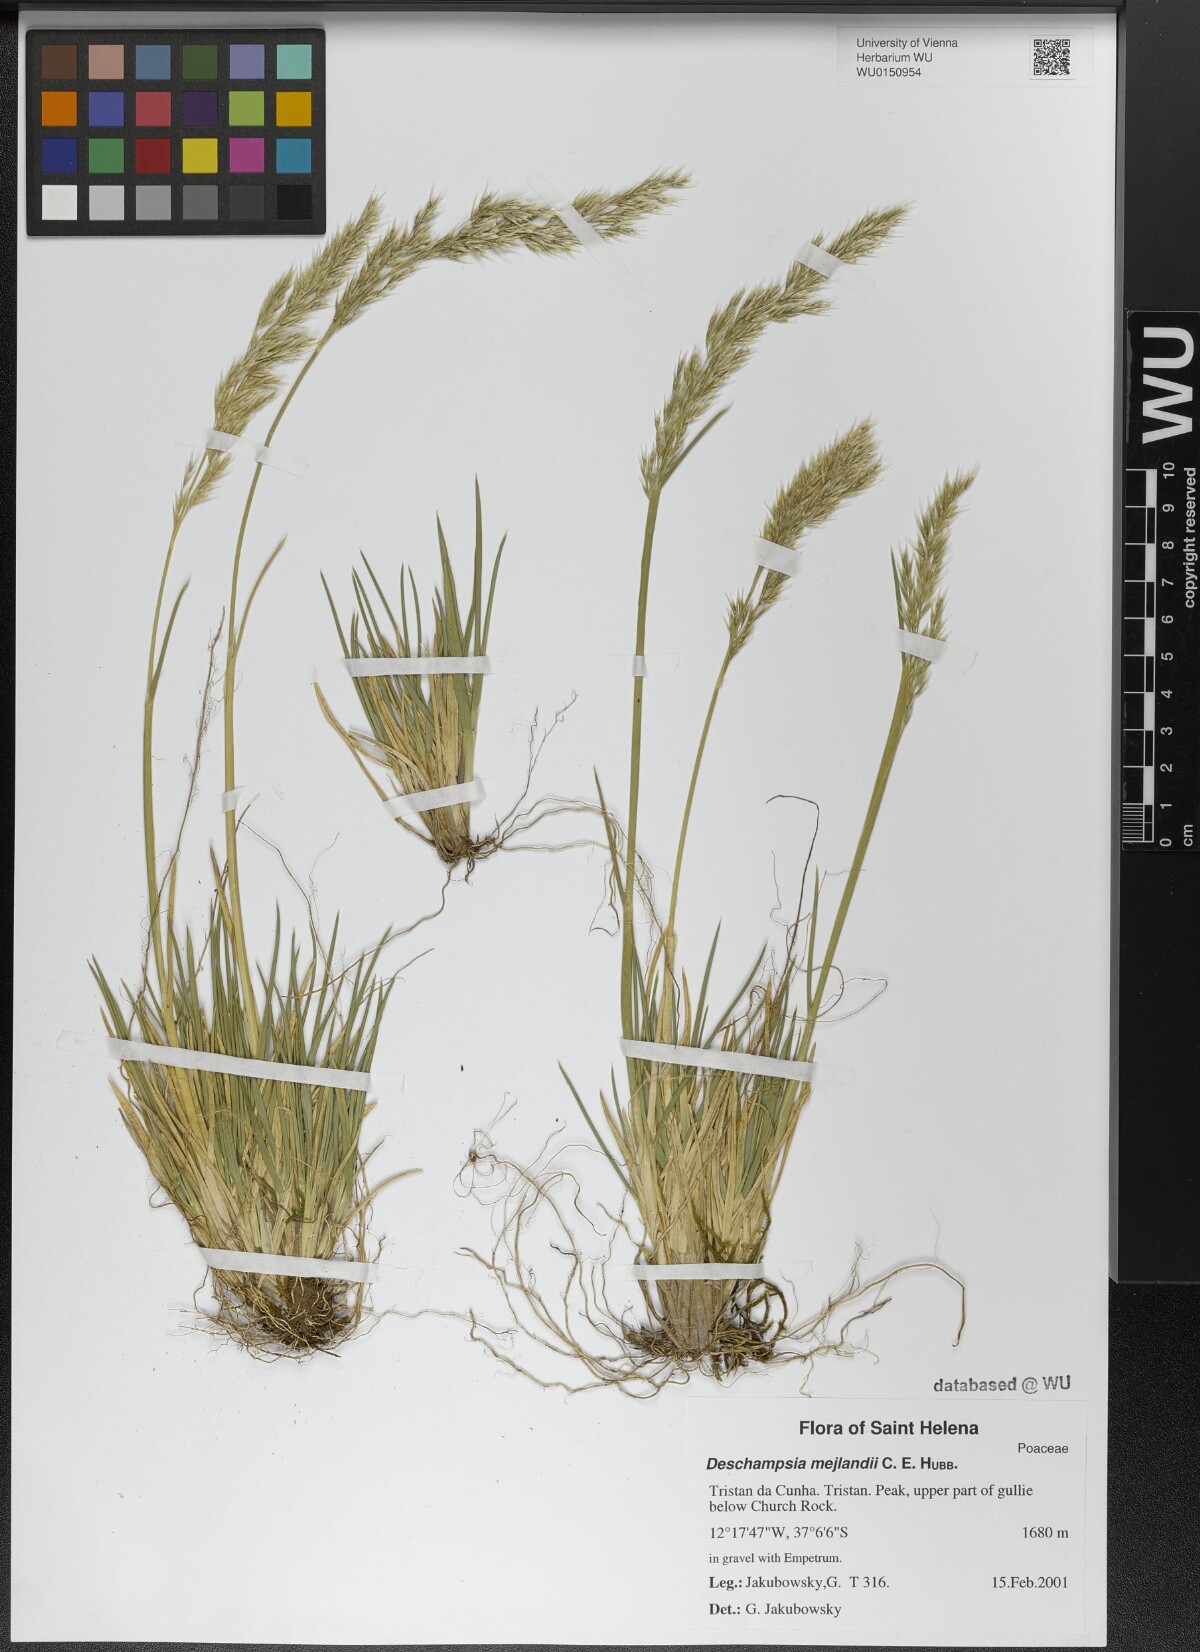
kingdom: Plantae
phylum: Tracheophyta
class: Liliopsida
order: Poales
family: Poaceae
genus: Deschampsia
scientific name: Deschampsia mejlandii
